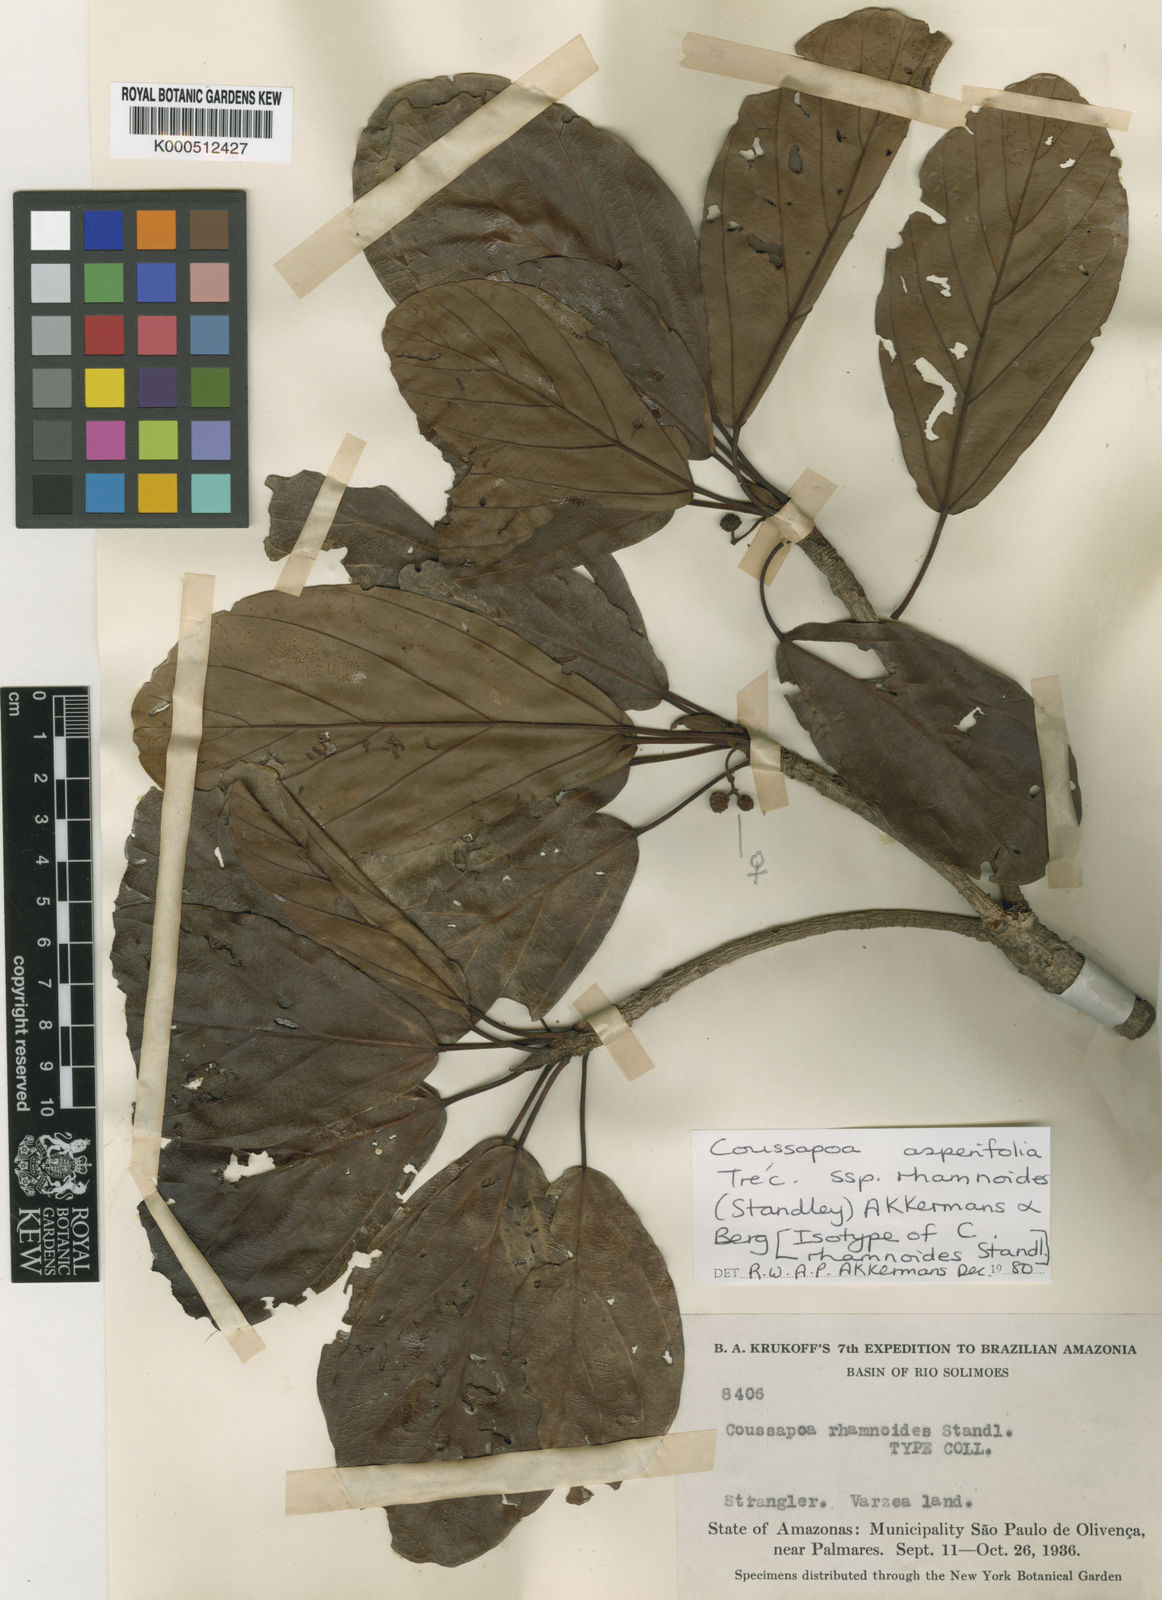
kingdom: Plantae
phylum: Tracheophyta
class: Magnoliopsida
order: Rosales
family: Urticaceae
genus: Coussapoa
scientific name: Coussapoa
